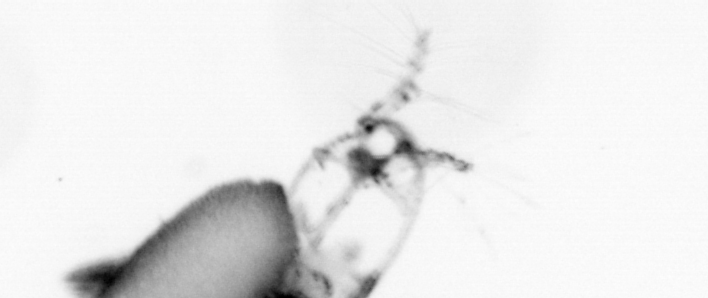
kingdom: Animalia
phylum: Arthropoda
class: Copepoda
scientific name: Copepoda
